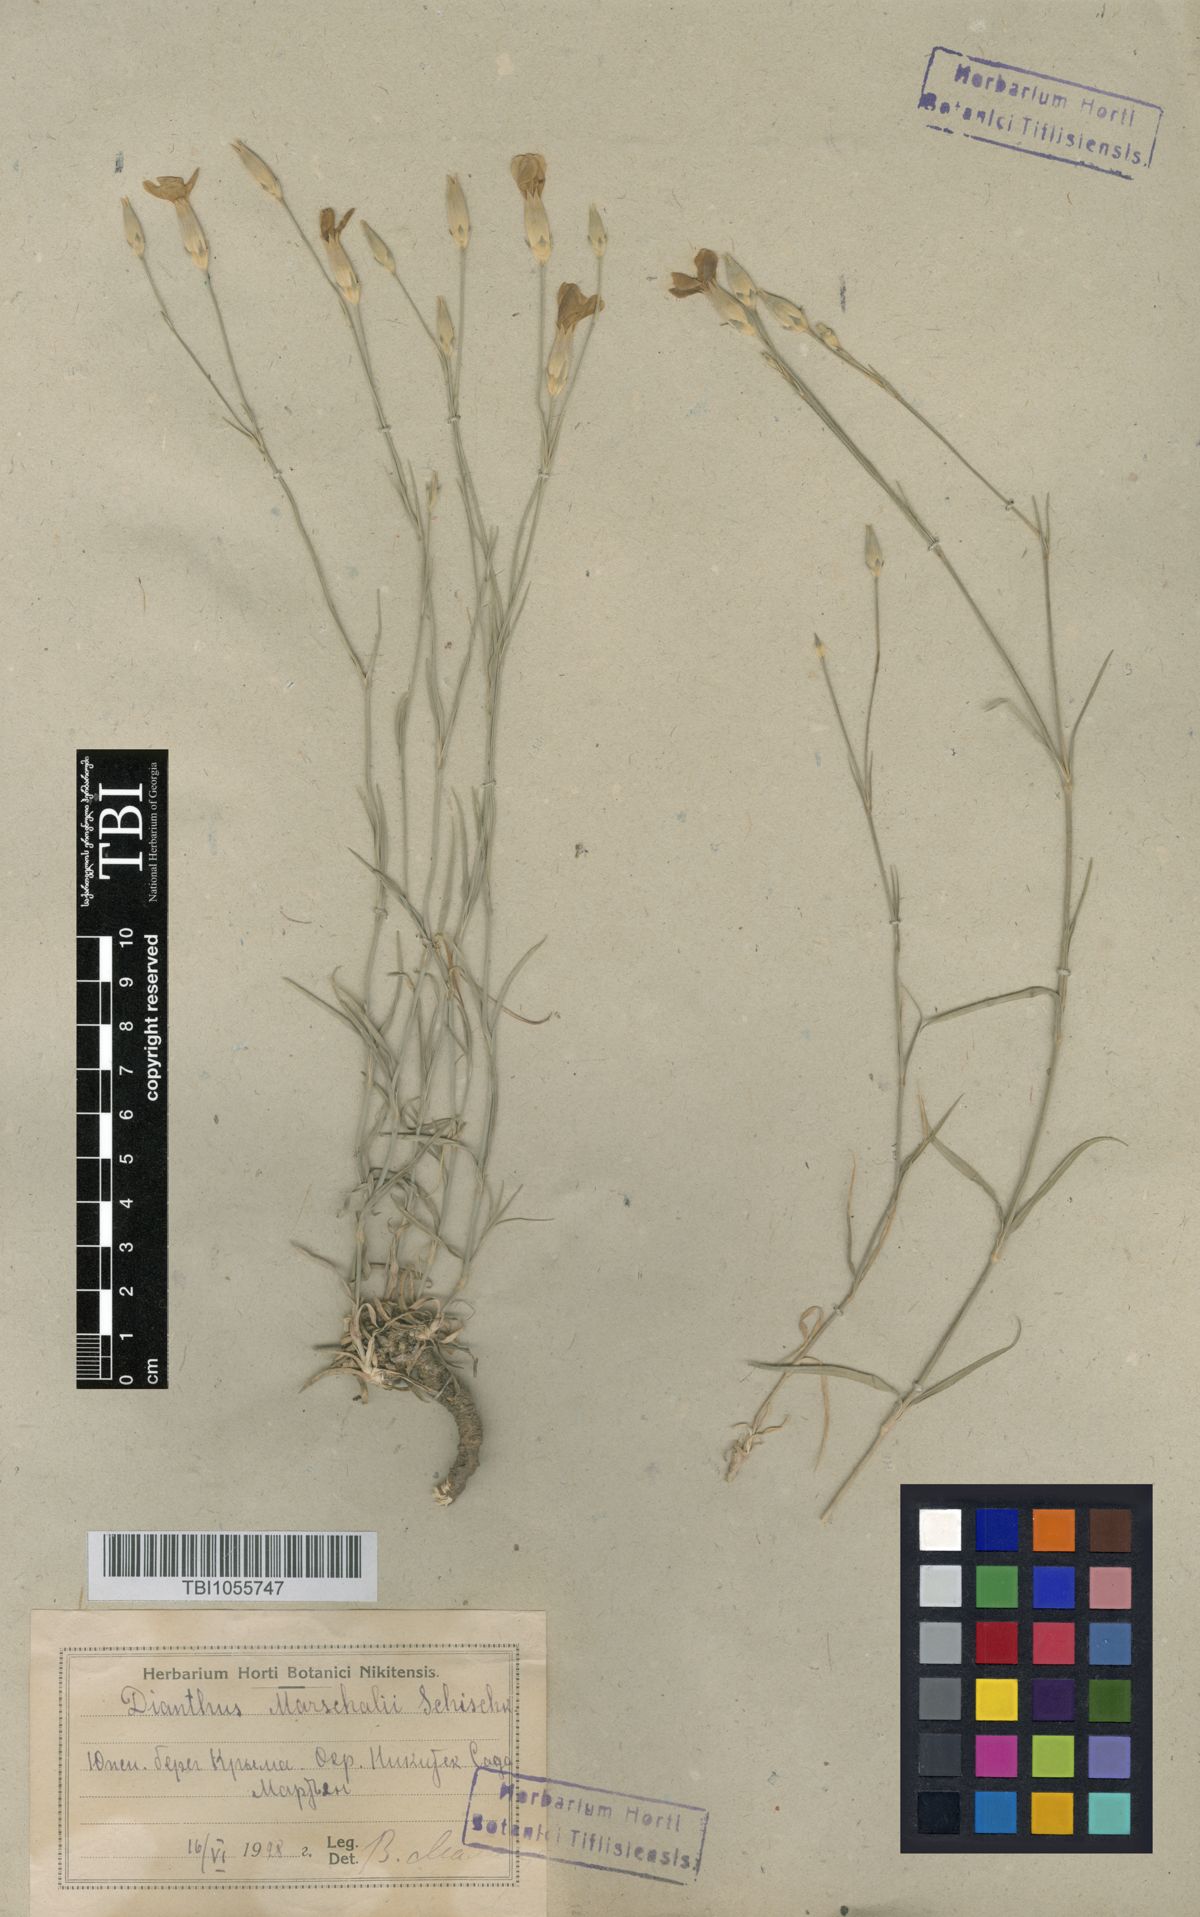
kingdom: Plantae
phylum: Tracheophyta
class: Magnoliopsida
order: Caryophyllales
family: Caryophyllaceae
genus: Dianthus
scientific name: Dianthus marschallii
